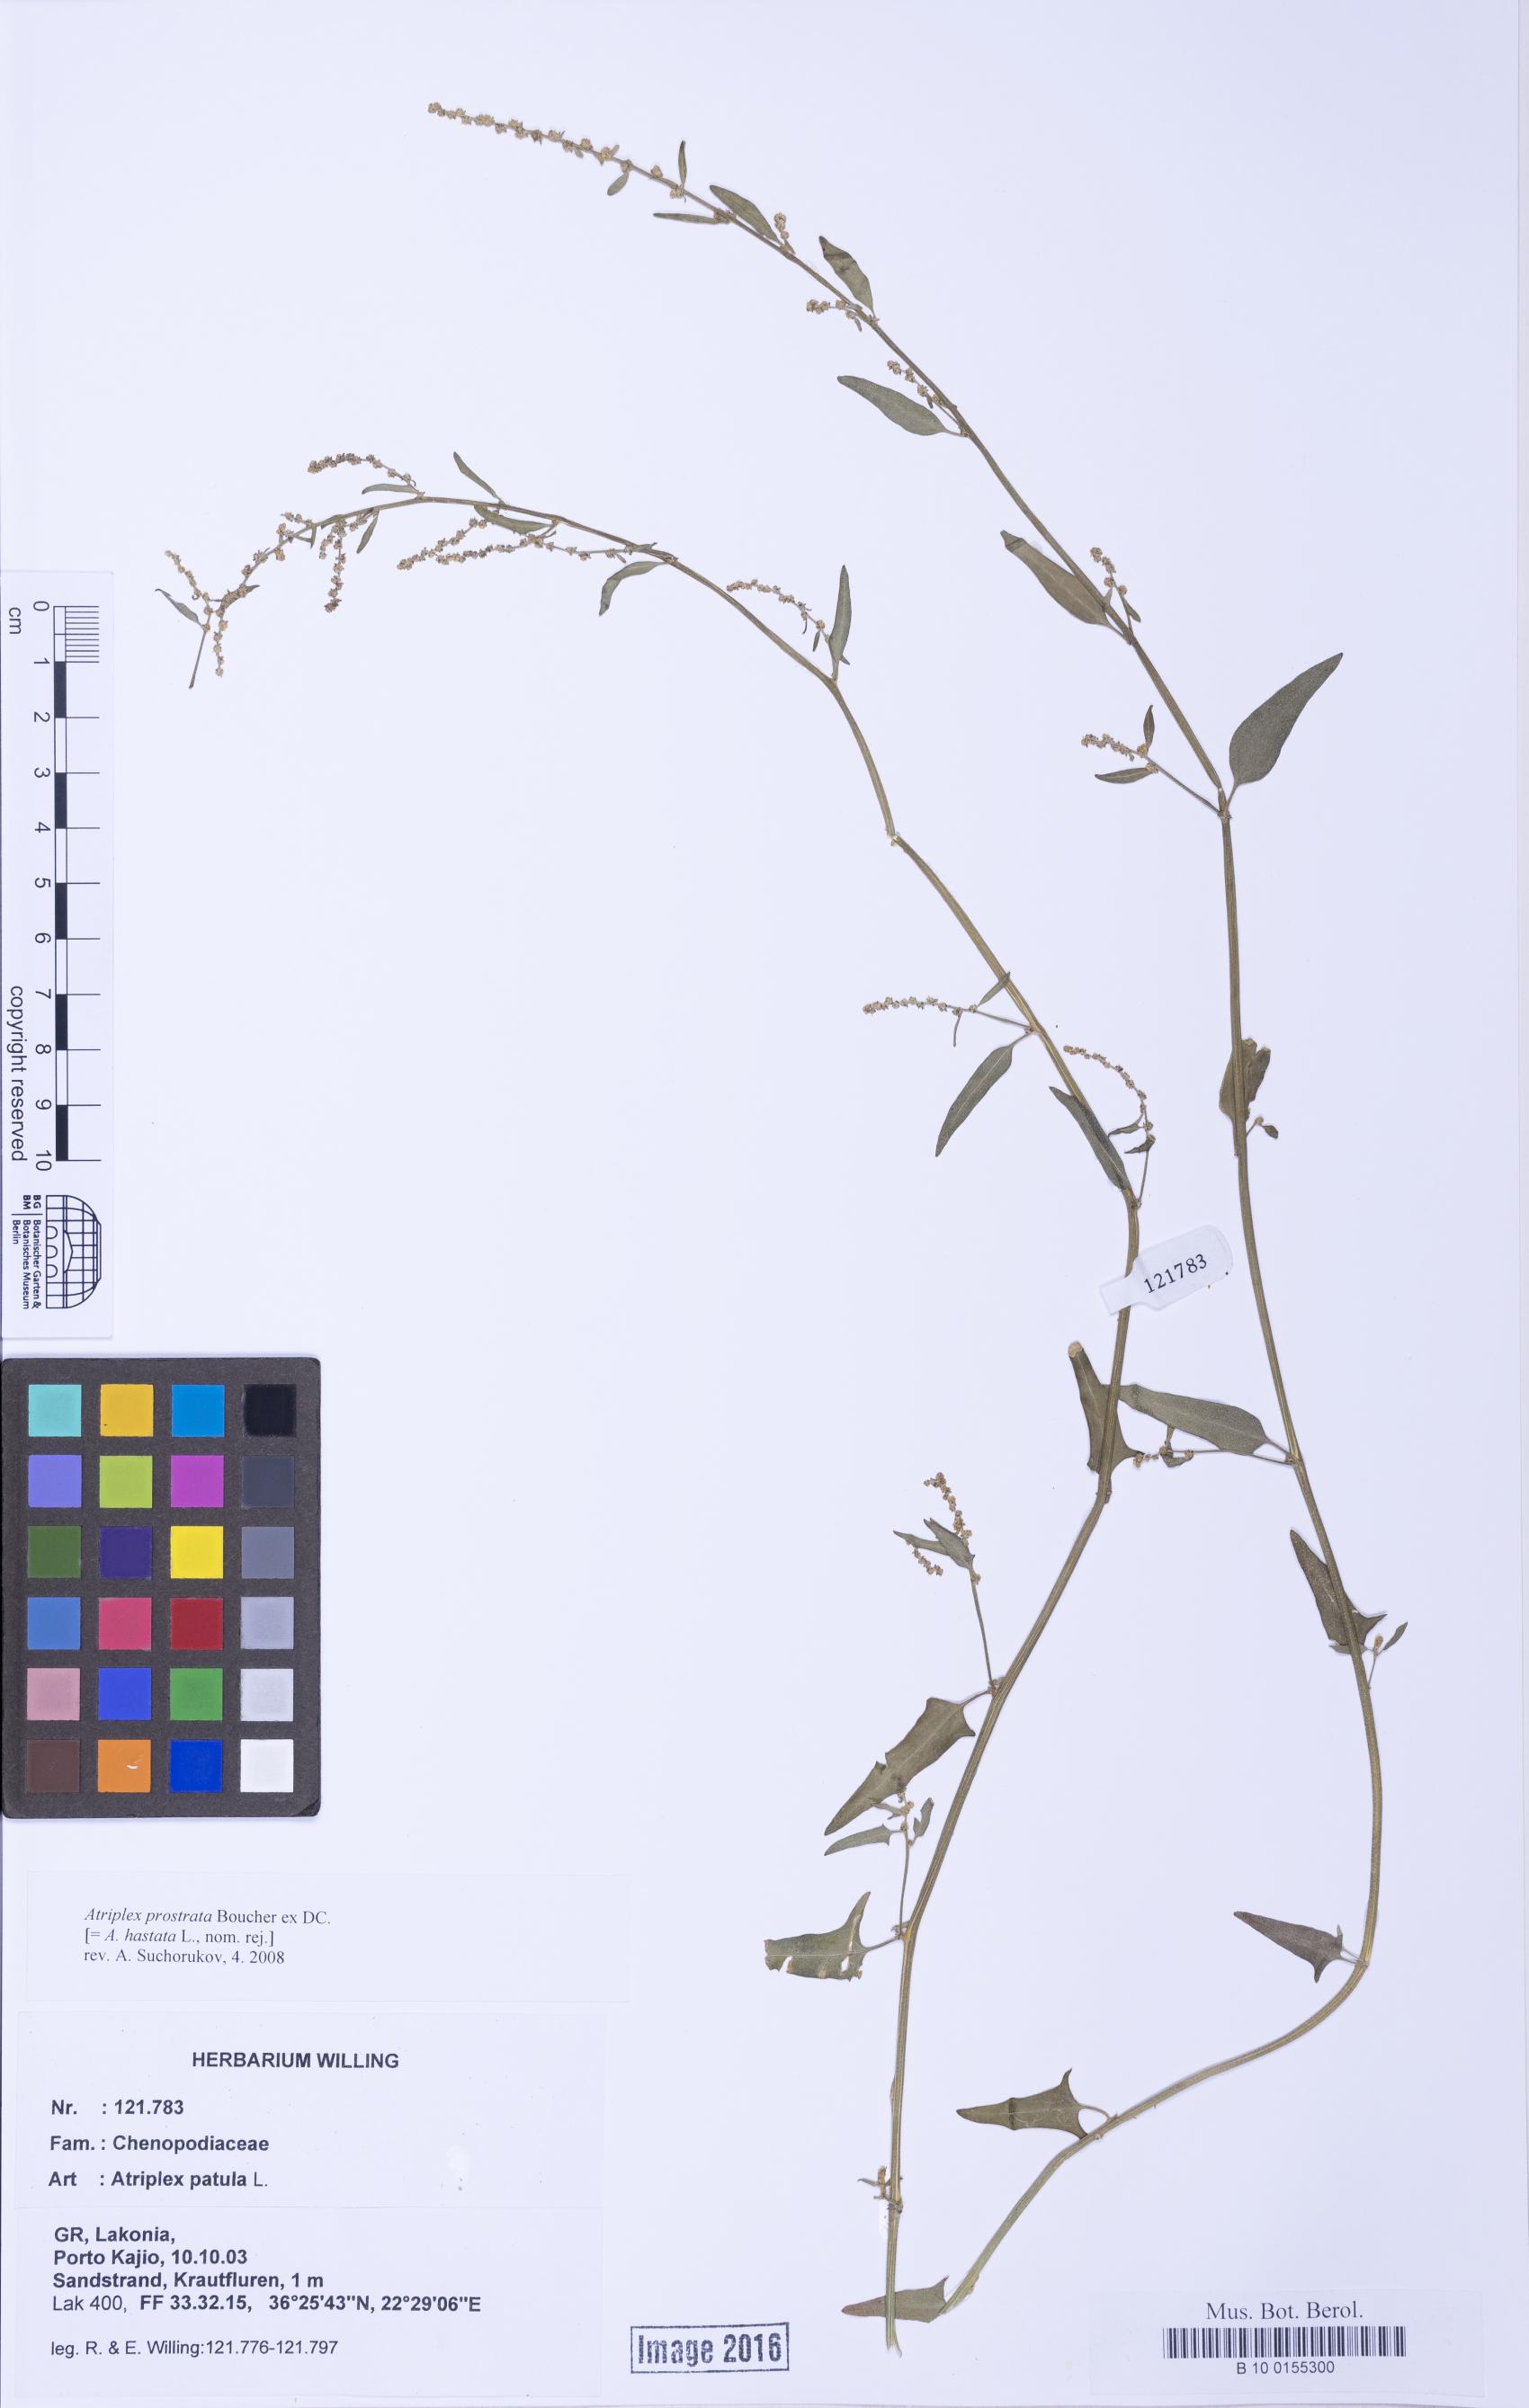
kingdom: Plantae
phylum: Tracheophyta
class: Magnoliopsida
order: Caryophyllales
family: Amaranthaceae
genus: Atriplex
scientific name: Atriplex prostrata
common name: Spear-leaved orache
